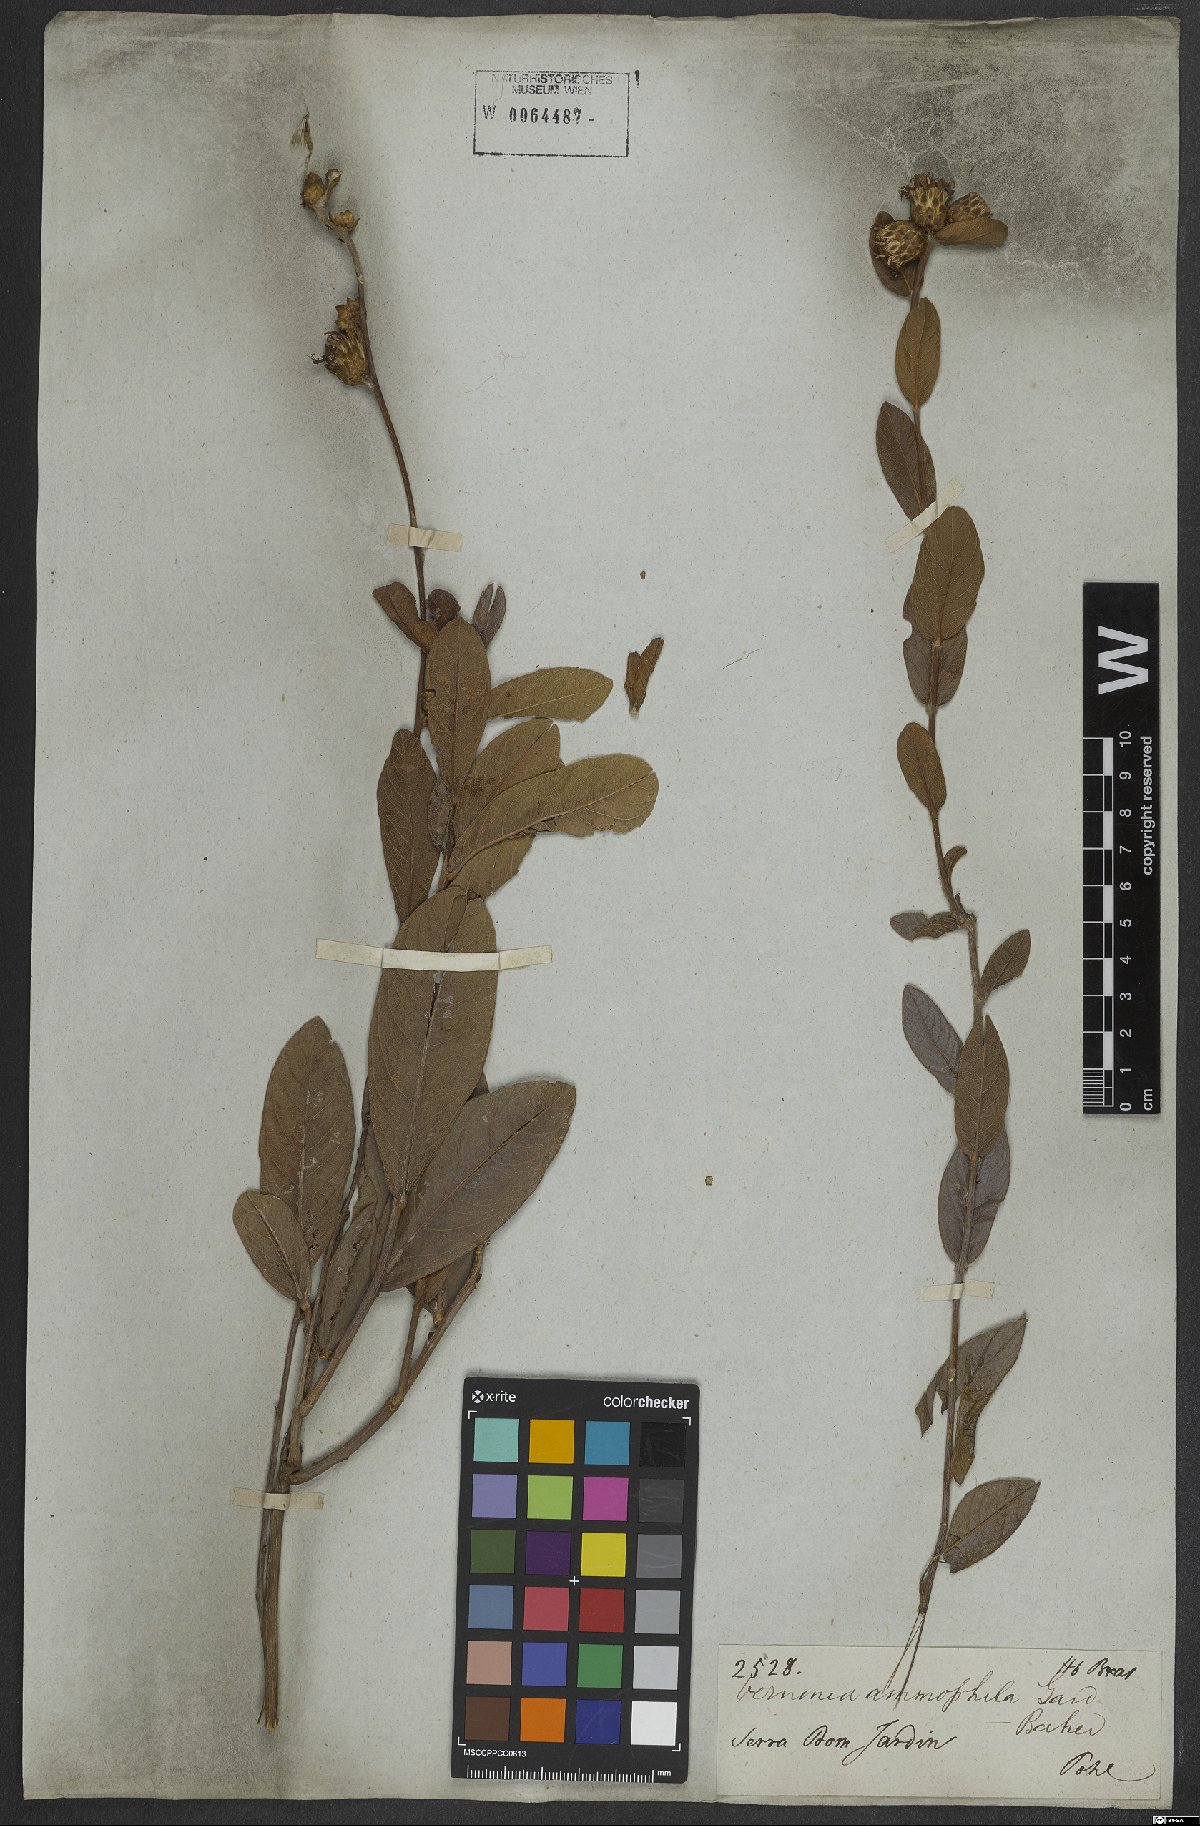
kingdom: Plantae
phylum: Tracheophyta
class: Magnoliopsida
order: Asterales
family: Asteraceae
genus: Lessingianthus
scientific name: Lessingianthus ammophilus
